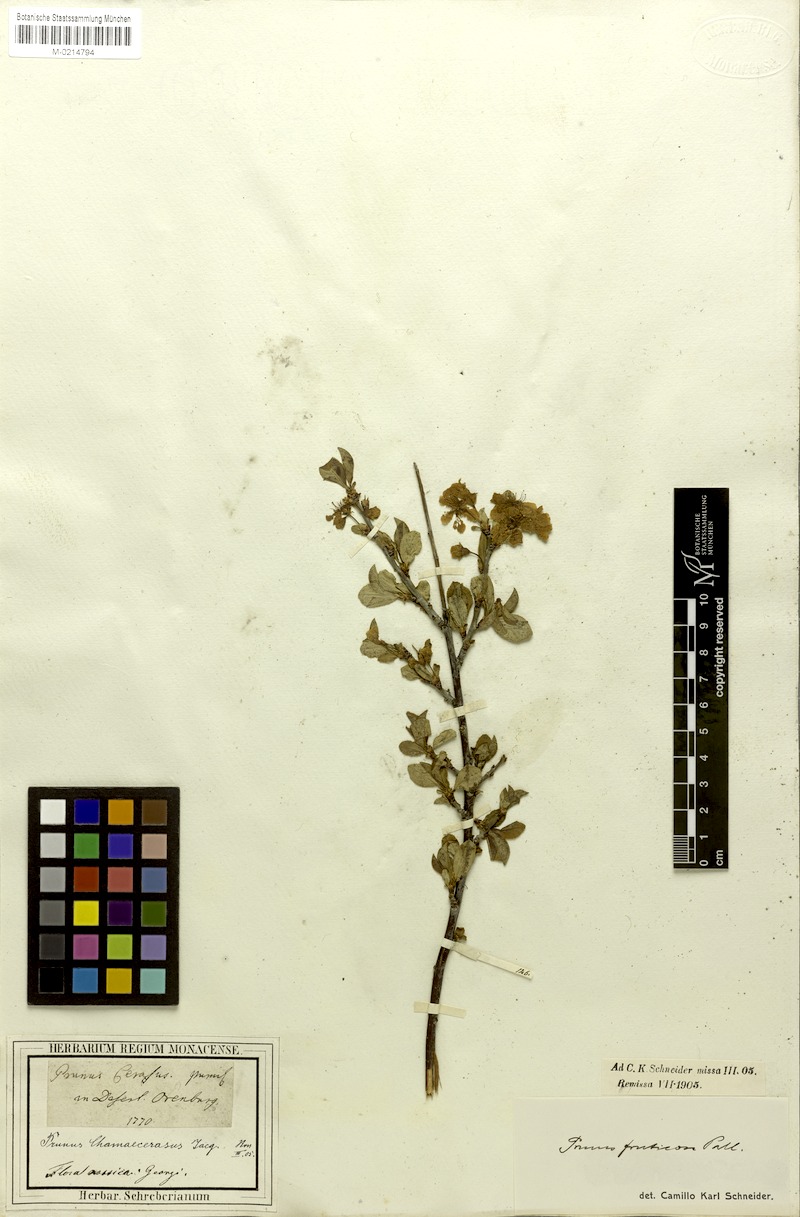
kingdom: Plantae
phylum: Tracheophyta
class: Magnoliopsida
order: Rosales
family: Rosaceae
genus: Prunus
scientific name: Prunus fruticosa
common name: European dwarf cherry
